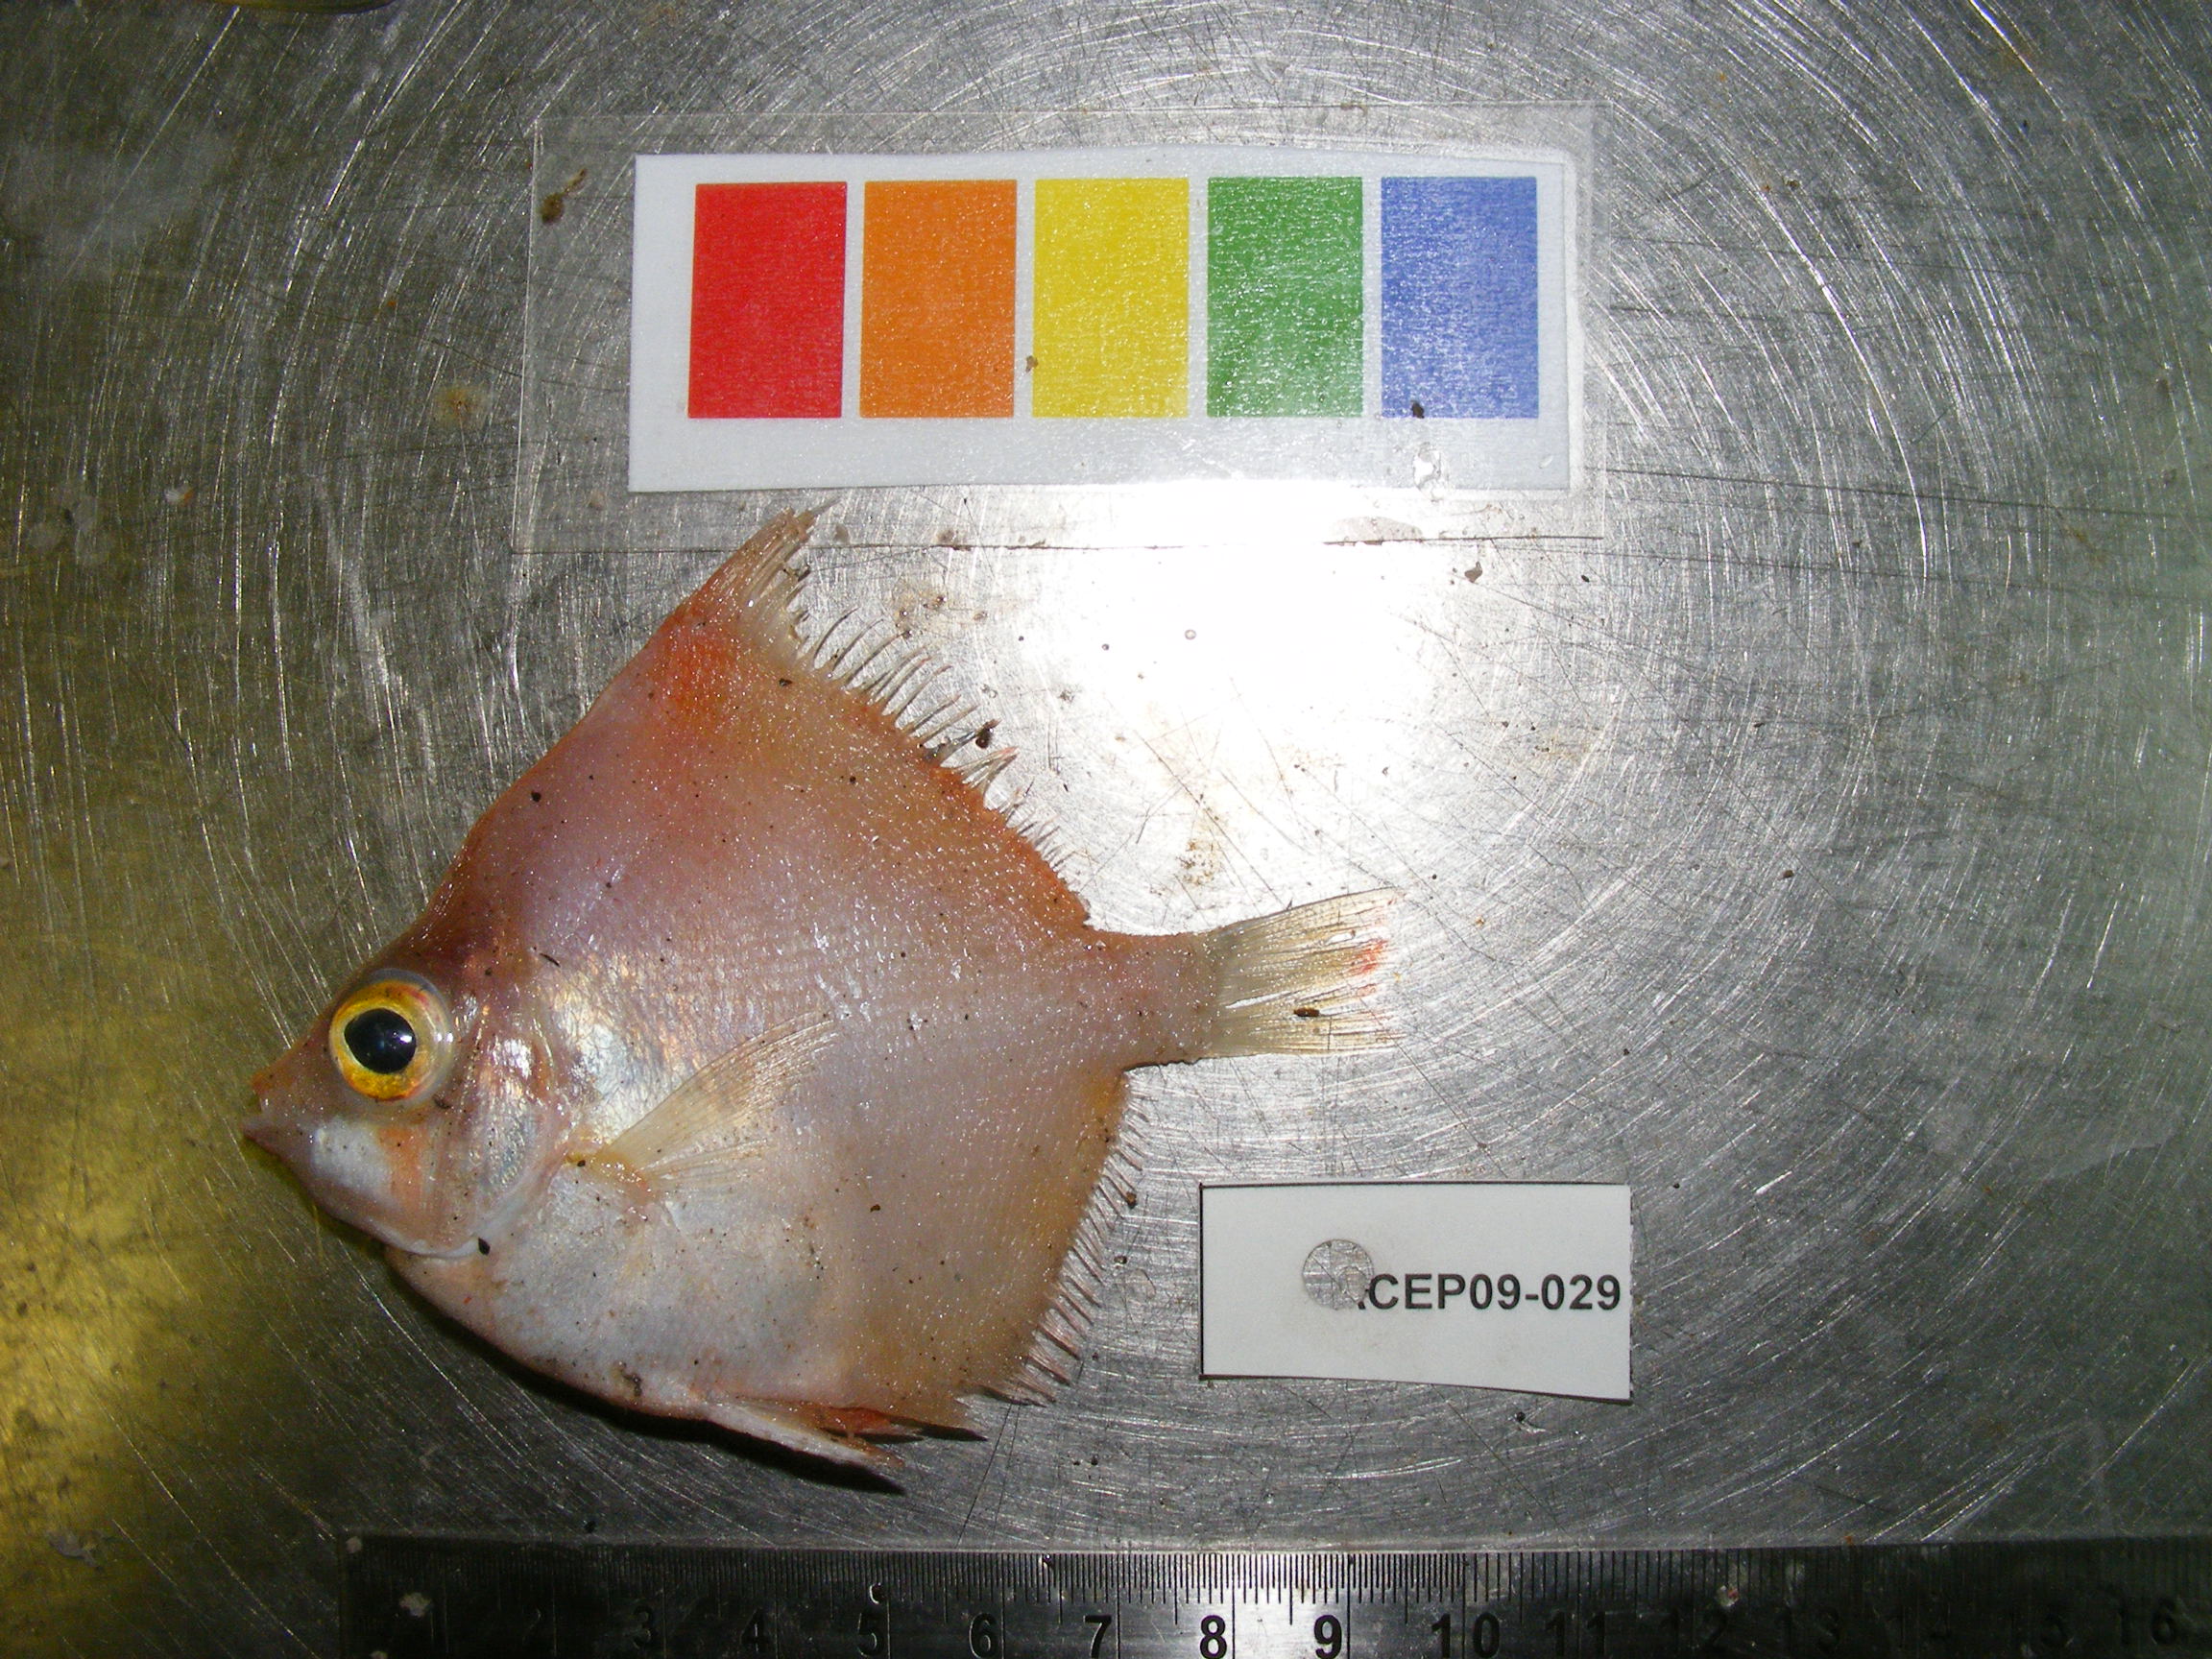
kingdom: Animalia
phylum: Chordata
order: Perciformes
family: Caproidae
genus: Antigonia
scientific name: Antigonia rubescens
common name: Indo-pacific boarfish
